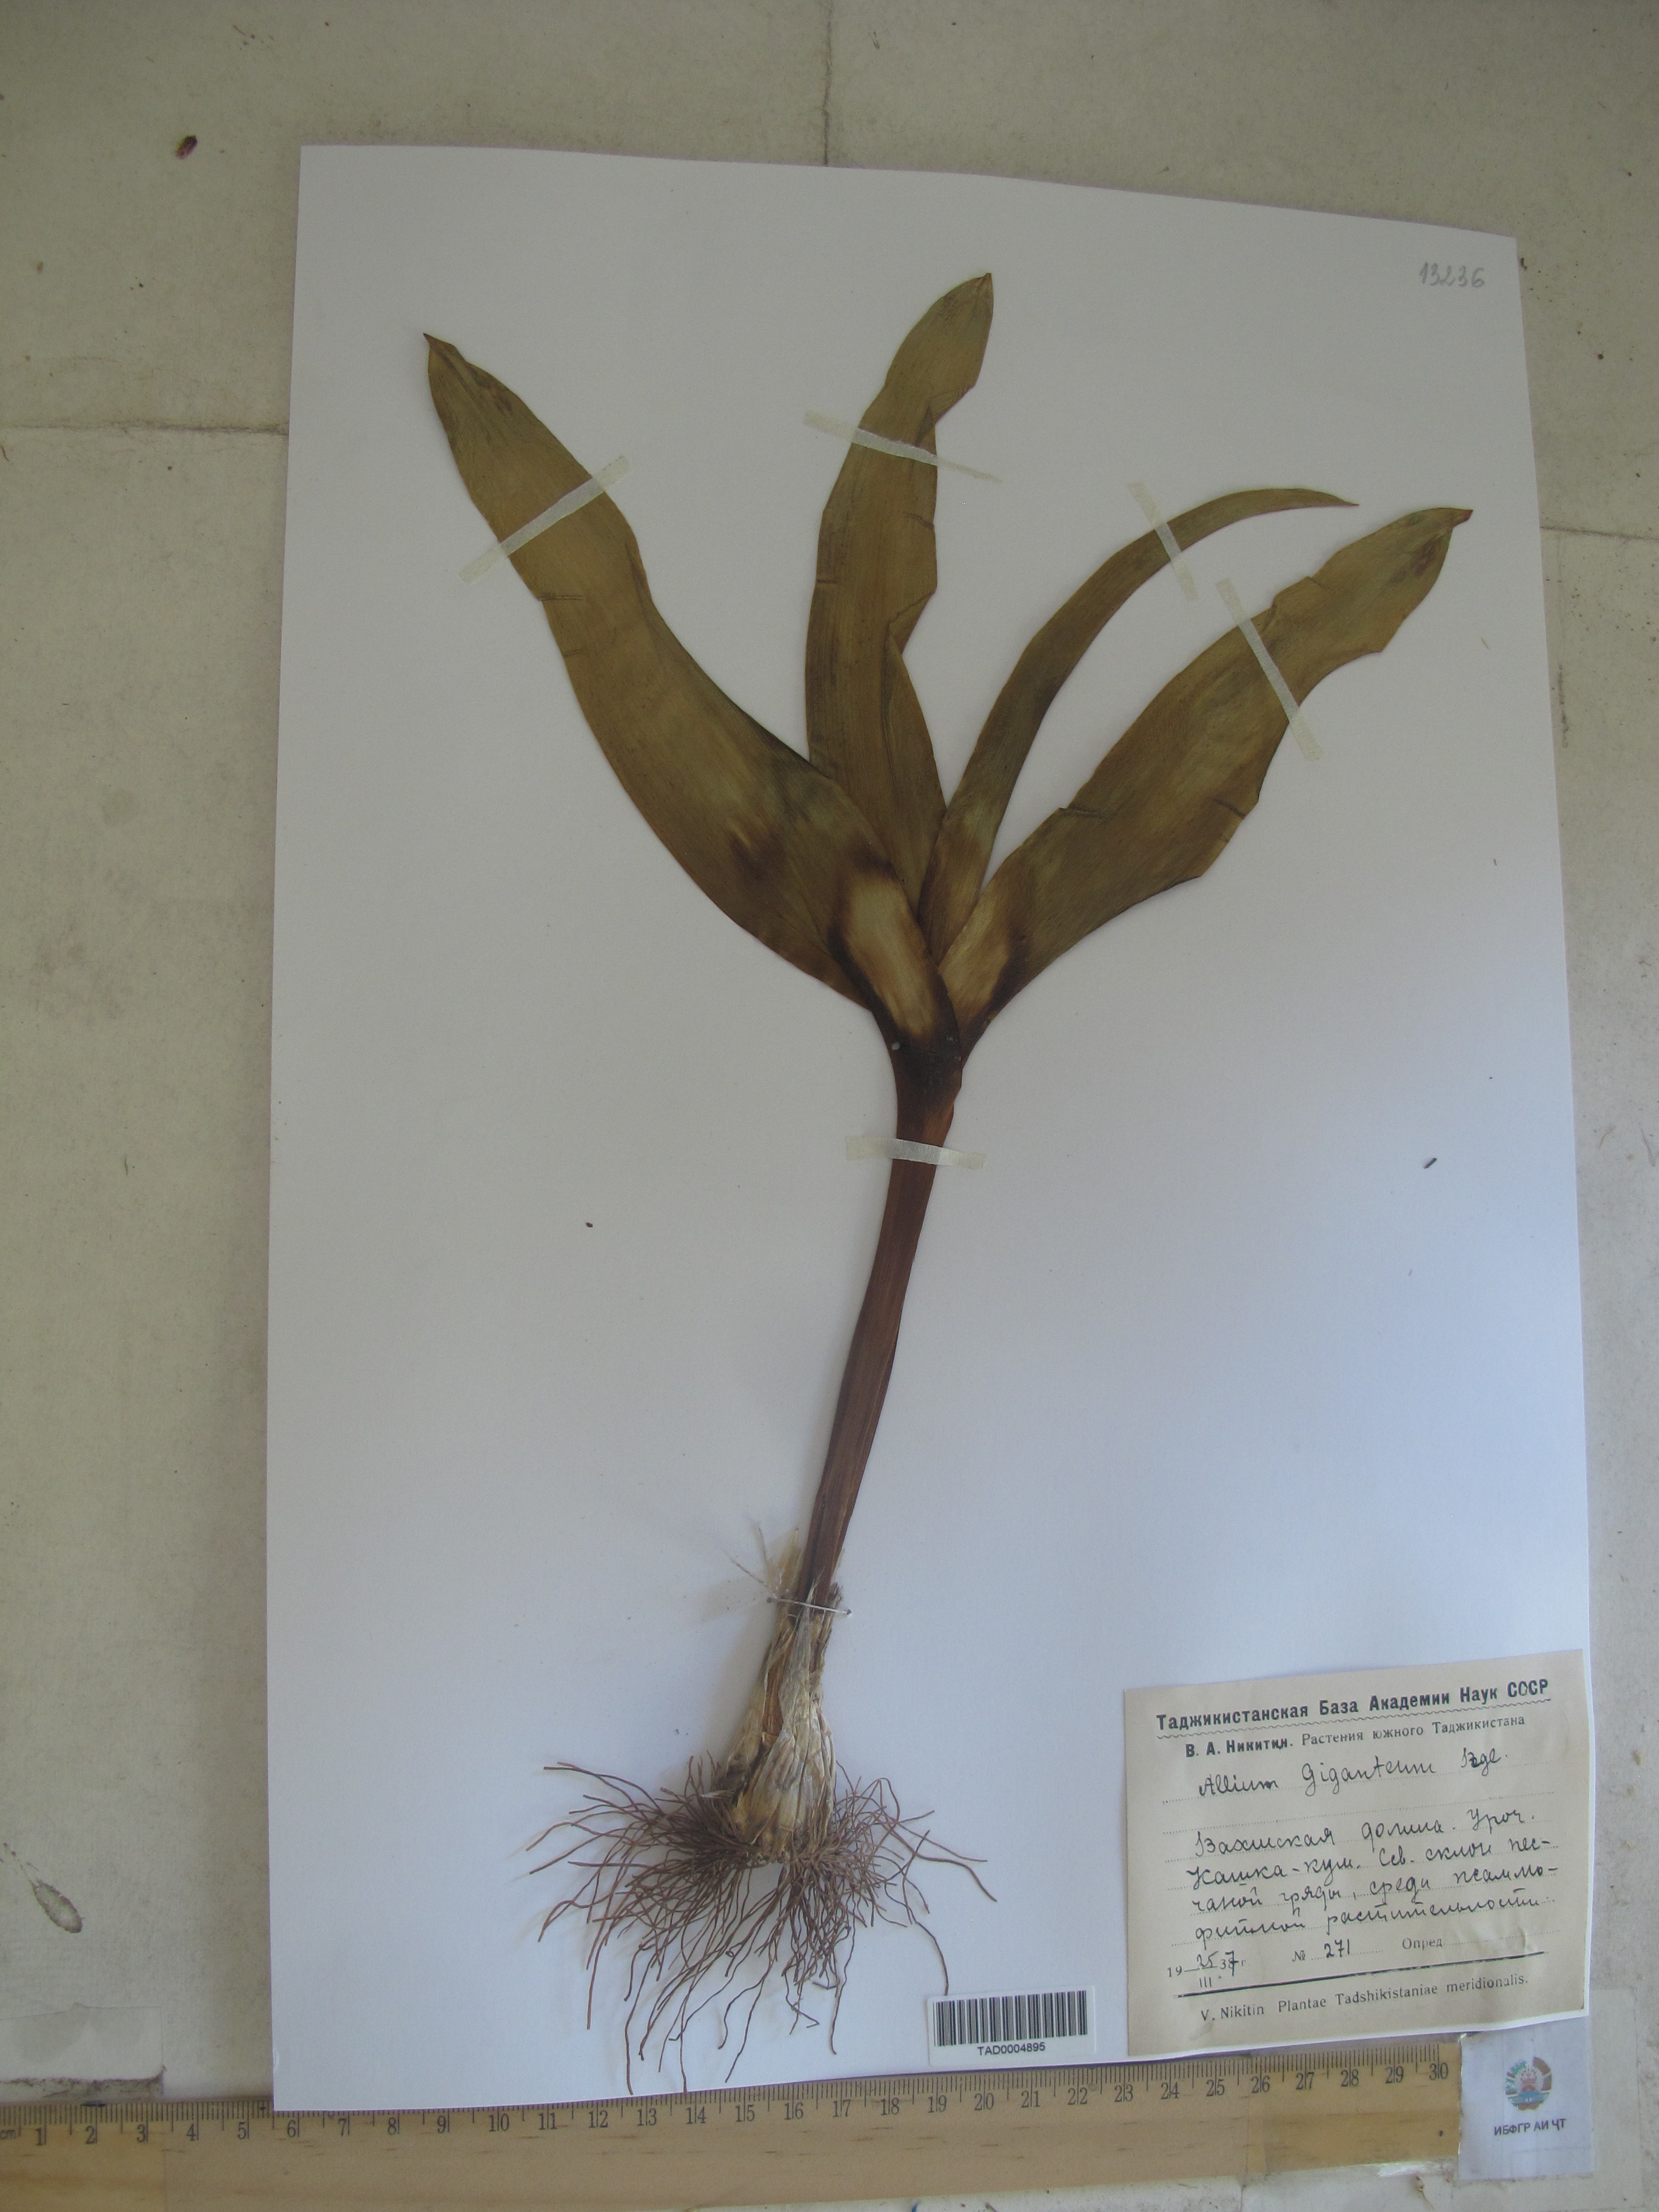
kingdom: Plantae
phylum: Tracheophyta
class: Liliopsida
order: Asparagales
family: Amaryllidaceae
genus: Allium
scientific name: Allium giganteum
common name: Giant onion
